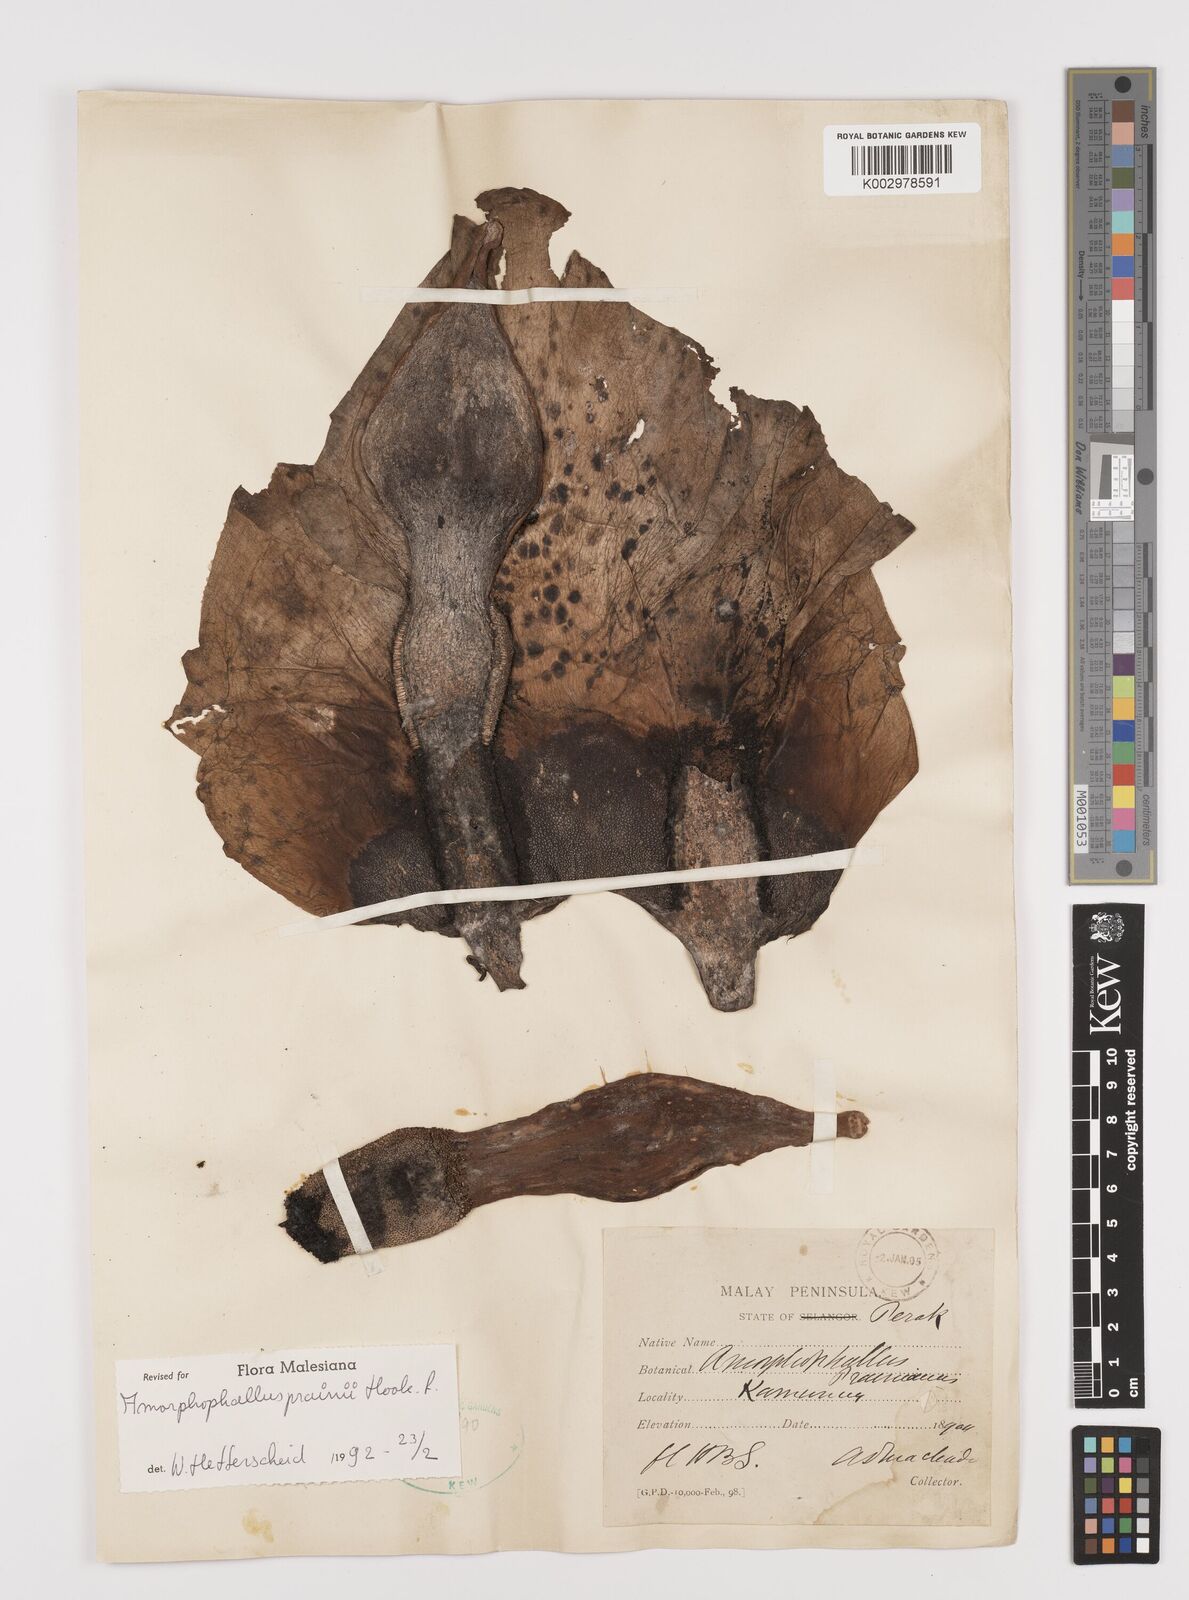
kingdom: Plantae
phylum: Tracheophyta
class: Liliopsida
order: Alismatales
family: Araceae
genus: Amorphophallus
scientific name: Amorphophallus prainii
